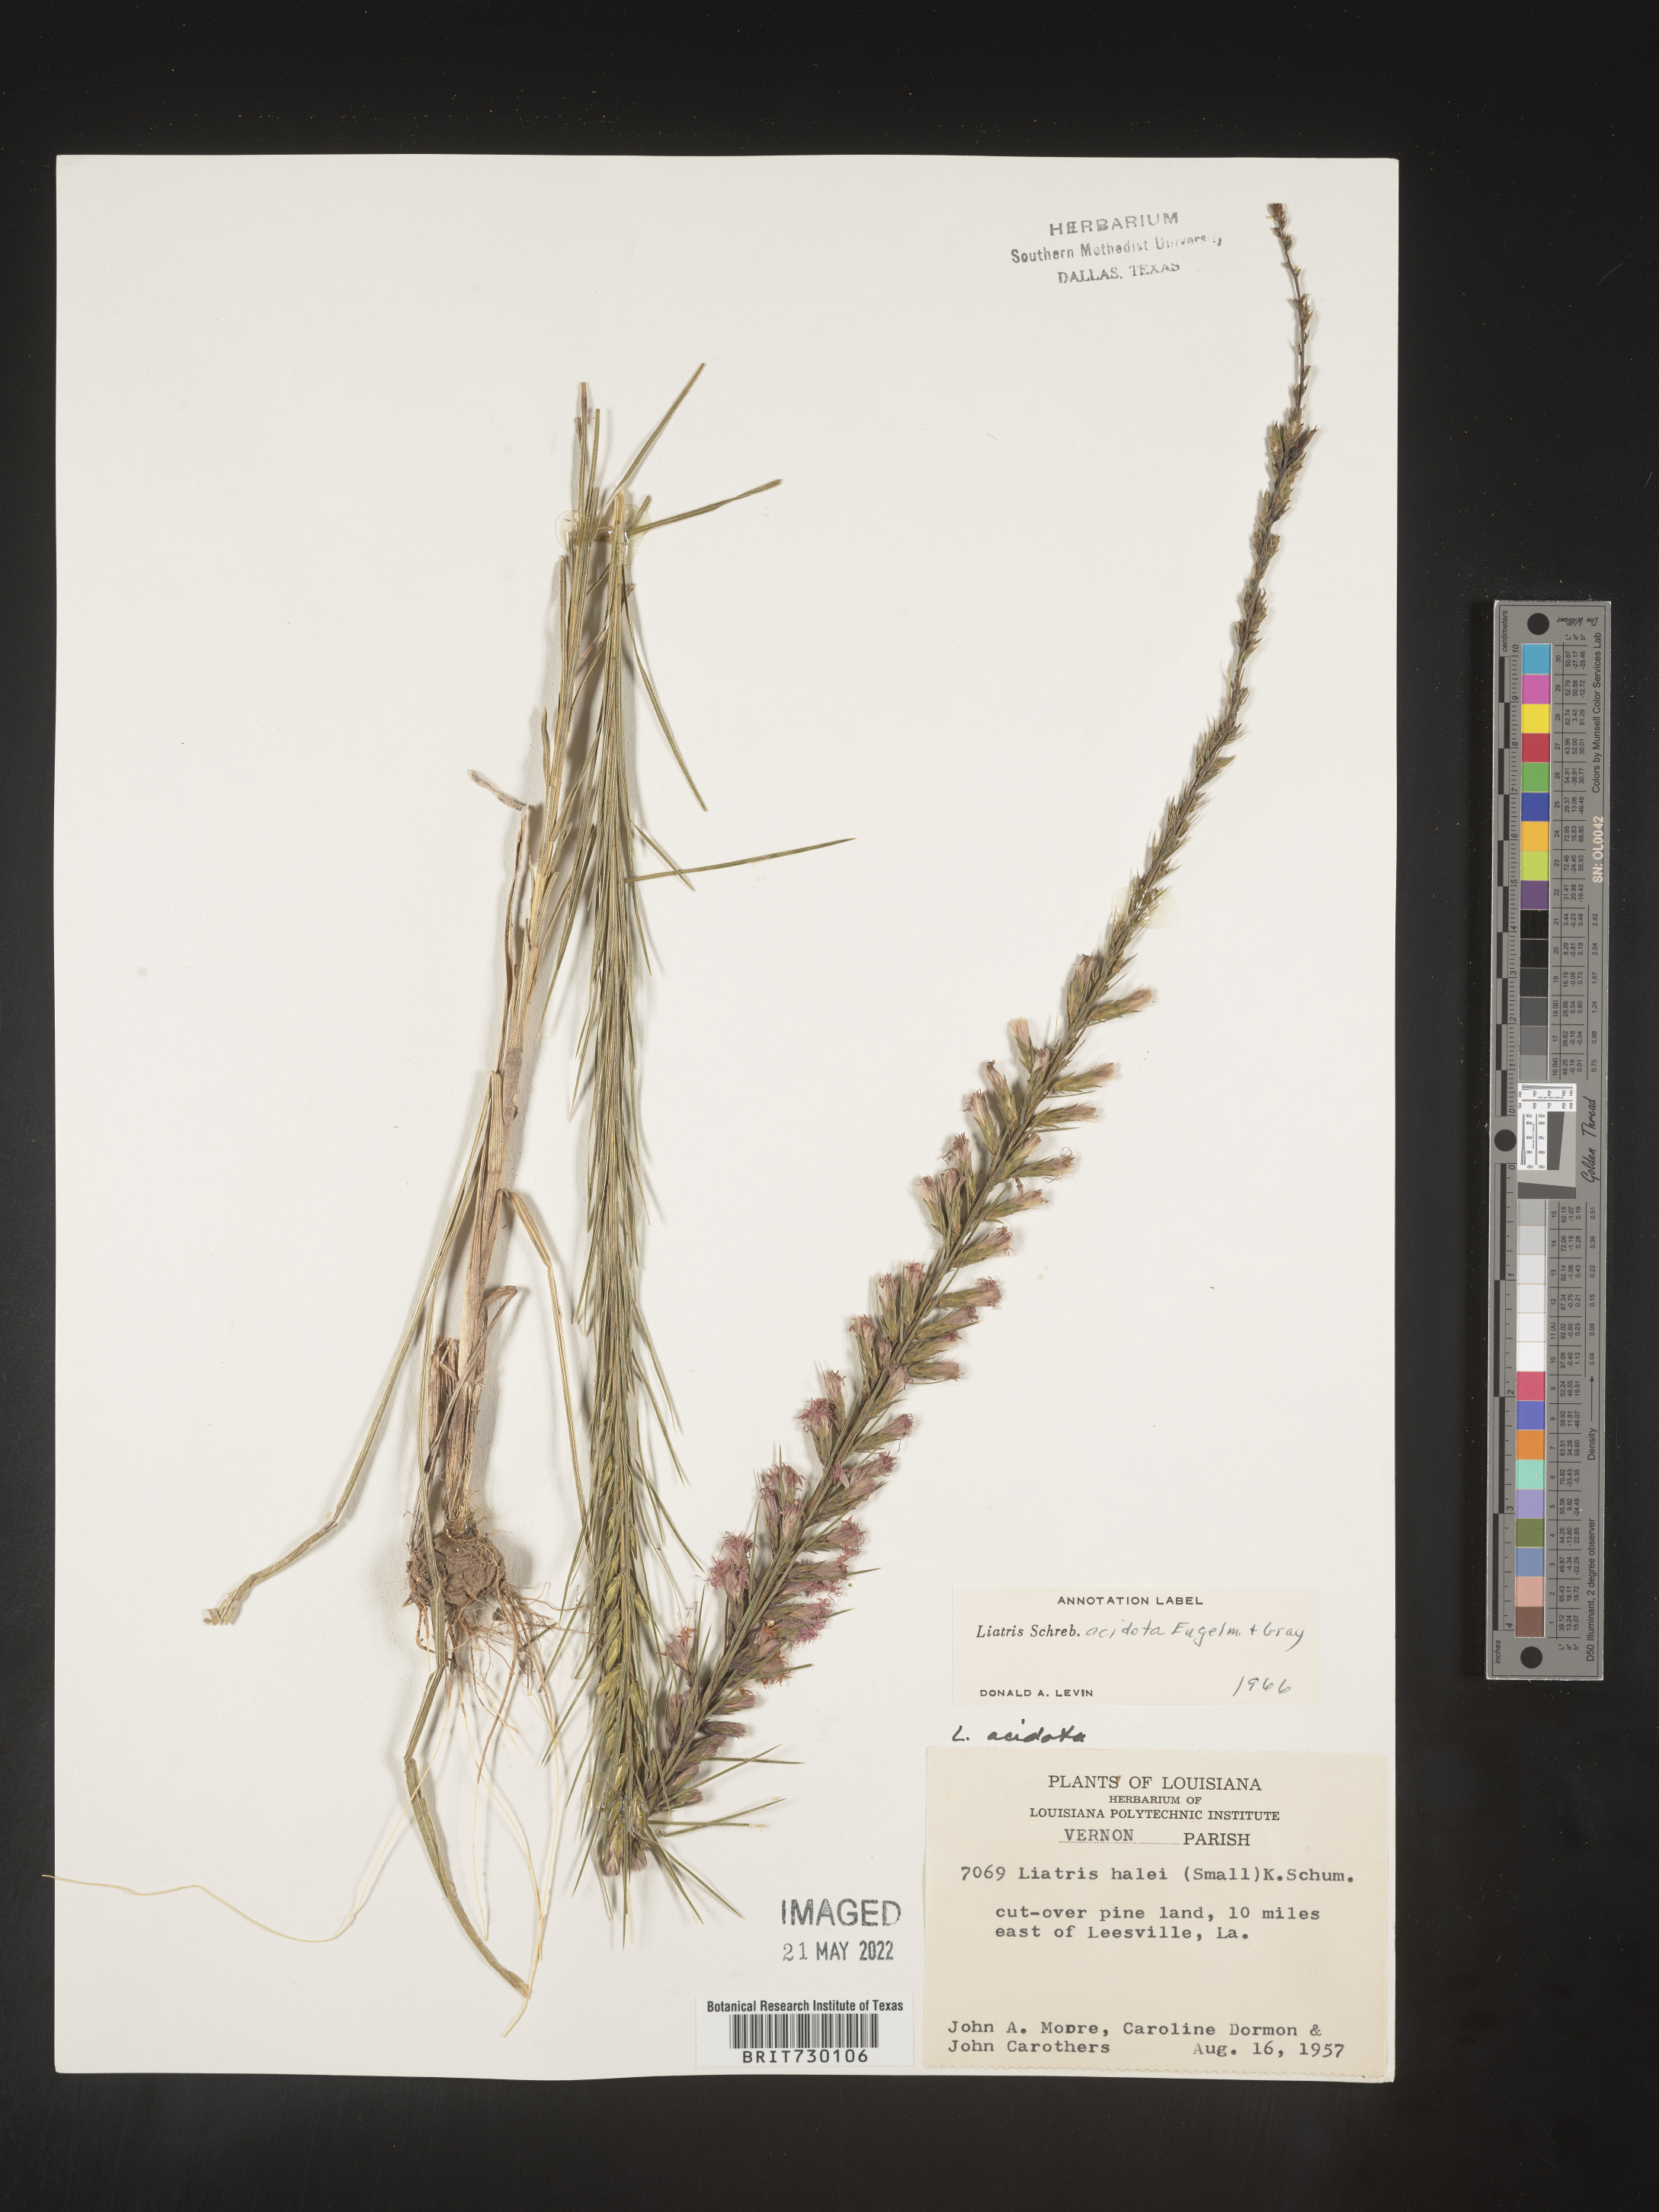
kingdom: Plantae
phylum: Tracheophyta
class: Magnoliopsida
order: Asterales
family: Asteraceae
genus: Liatris
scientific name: Liatris acidota
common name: Gulf coast gayfeather
